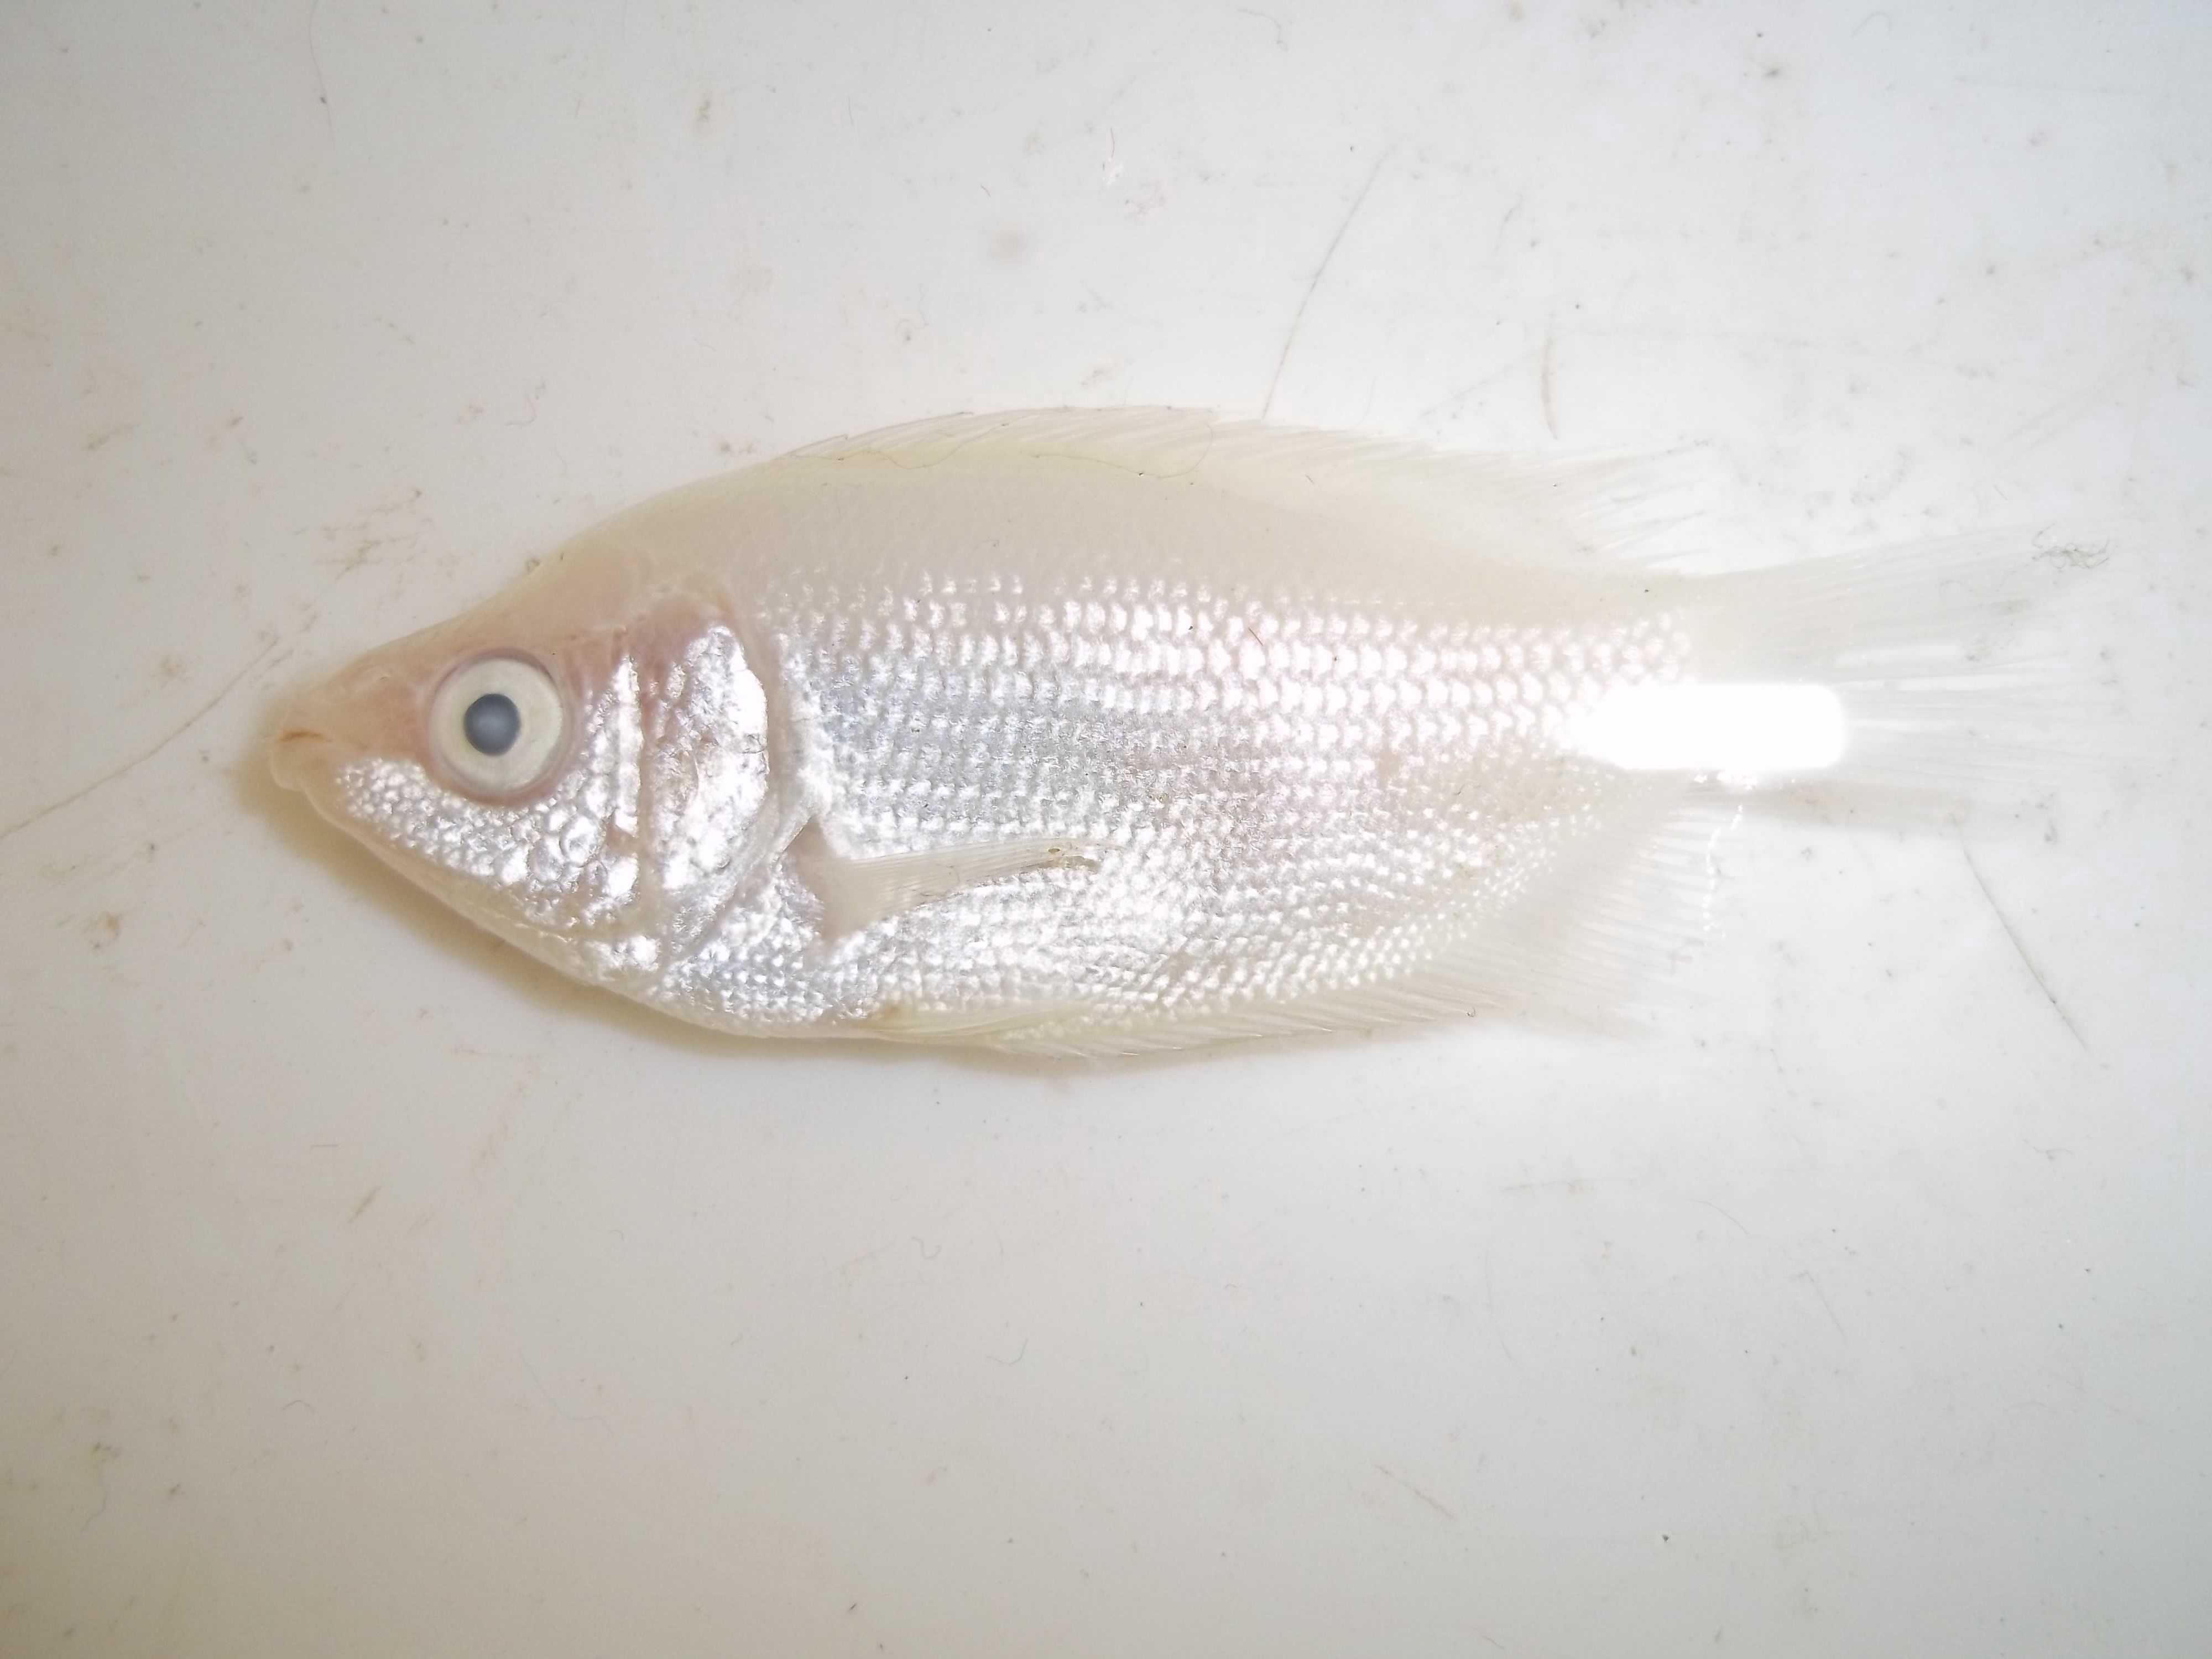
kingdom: Animalia
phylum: Chordata
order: Perciformes
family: Helostomatidae
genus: Helostoma
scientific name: Helostoma temminckii
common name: Kissing gourami
